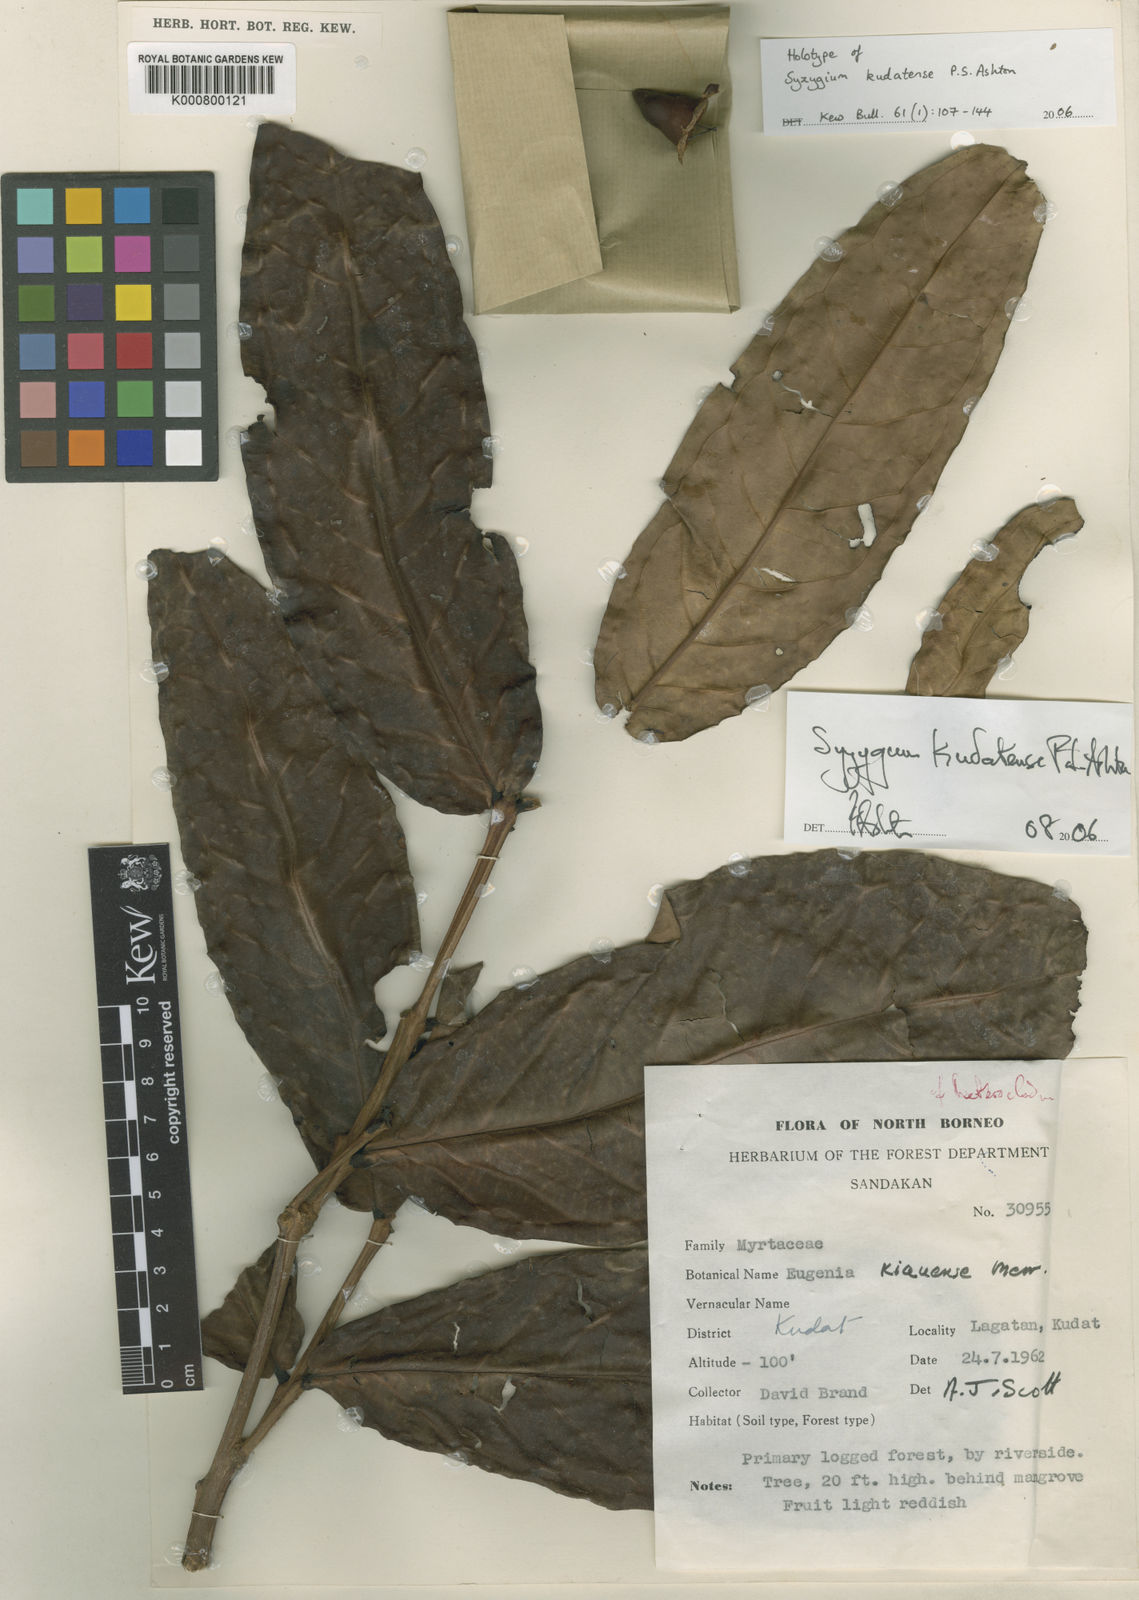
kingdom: Plantae
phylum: Tracheophyta
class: Magnoliopsida
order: Myrtales
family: Myrtaceae
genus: Syzygium
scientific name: Syzygium kudatense
